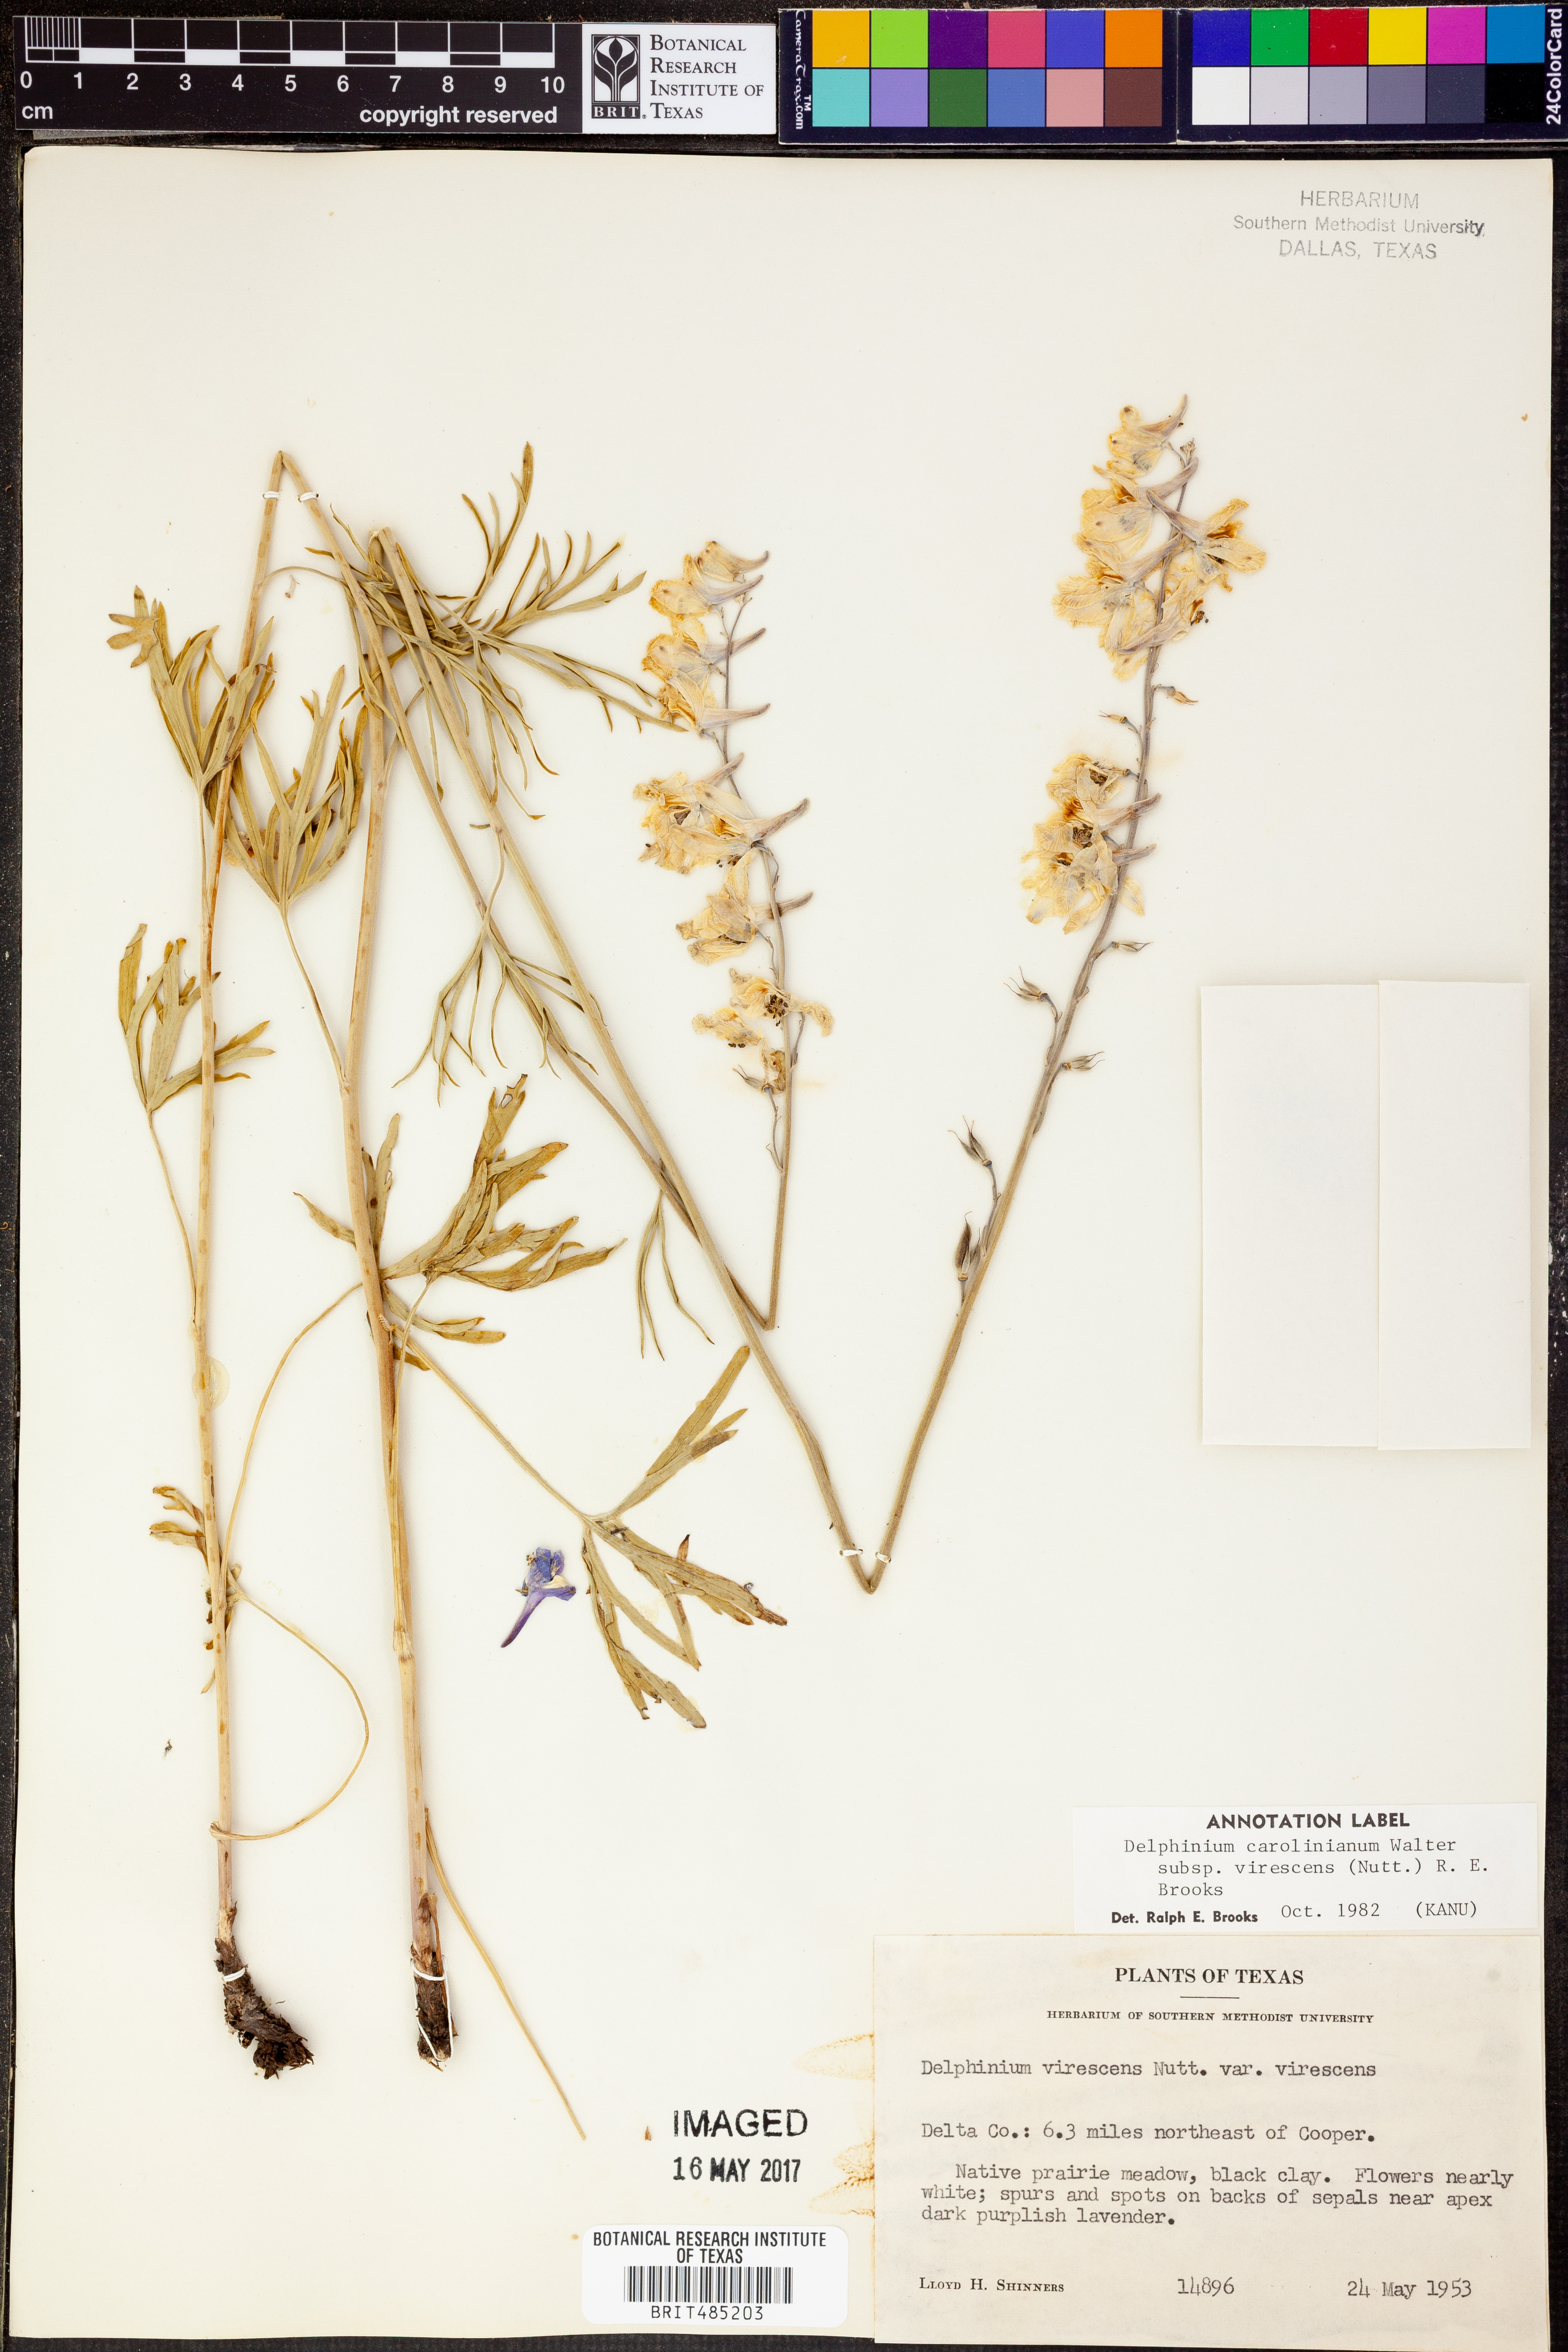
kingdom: Plantae
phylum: Tracheophyta
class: Magnoliopsida
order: Ranunculales
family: Ranunculaceae
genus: Delphinium
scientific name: Delphinium carolinianum
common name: Carolina larkspur
